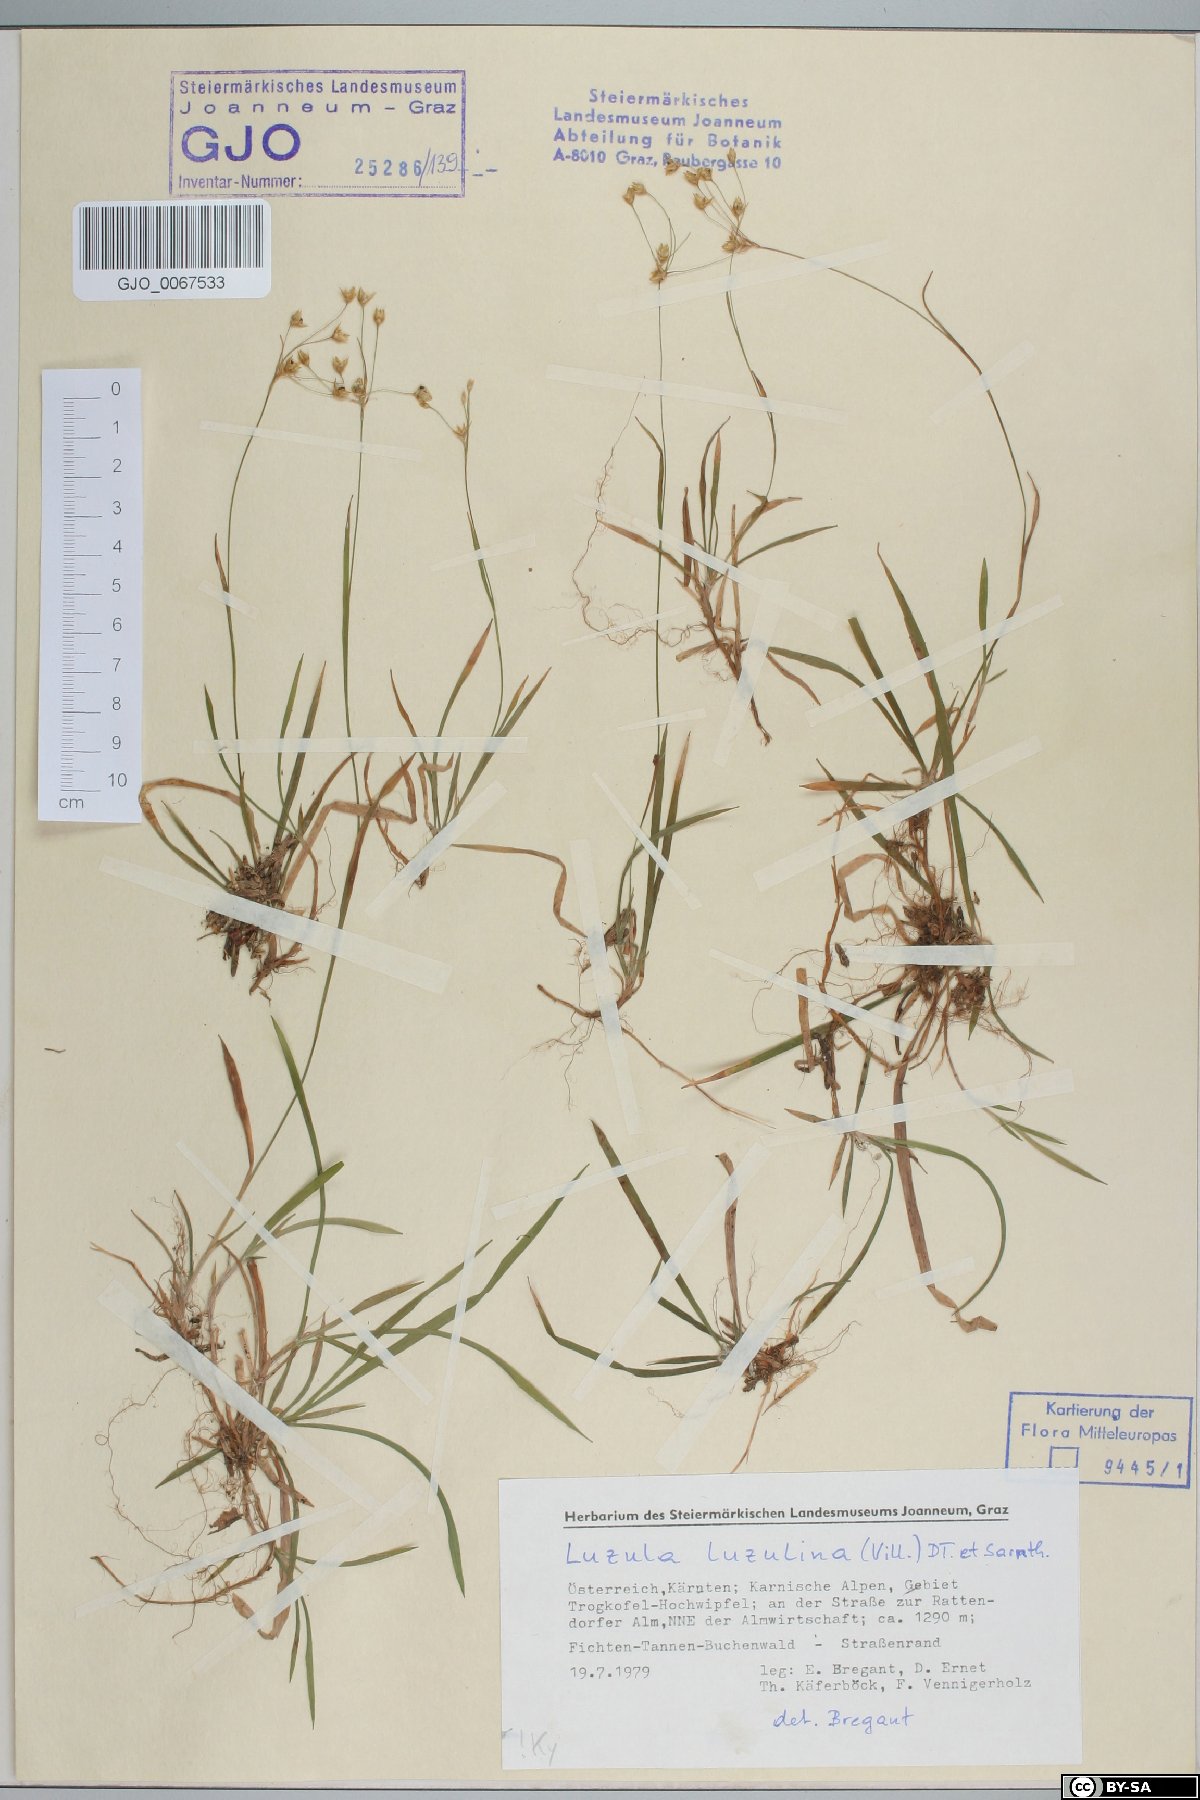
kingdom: Plantae
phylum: Tracheophyta
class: Liliopsida
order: Poales
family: Juncaceae
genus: Luzula
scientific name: Luzula luzulina
